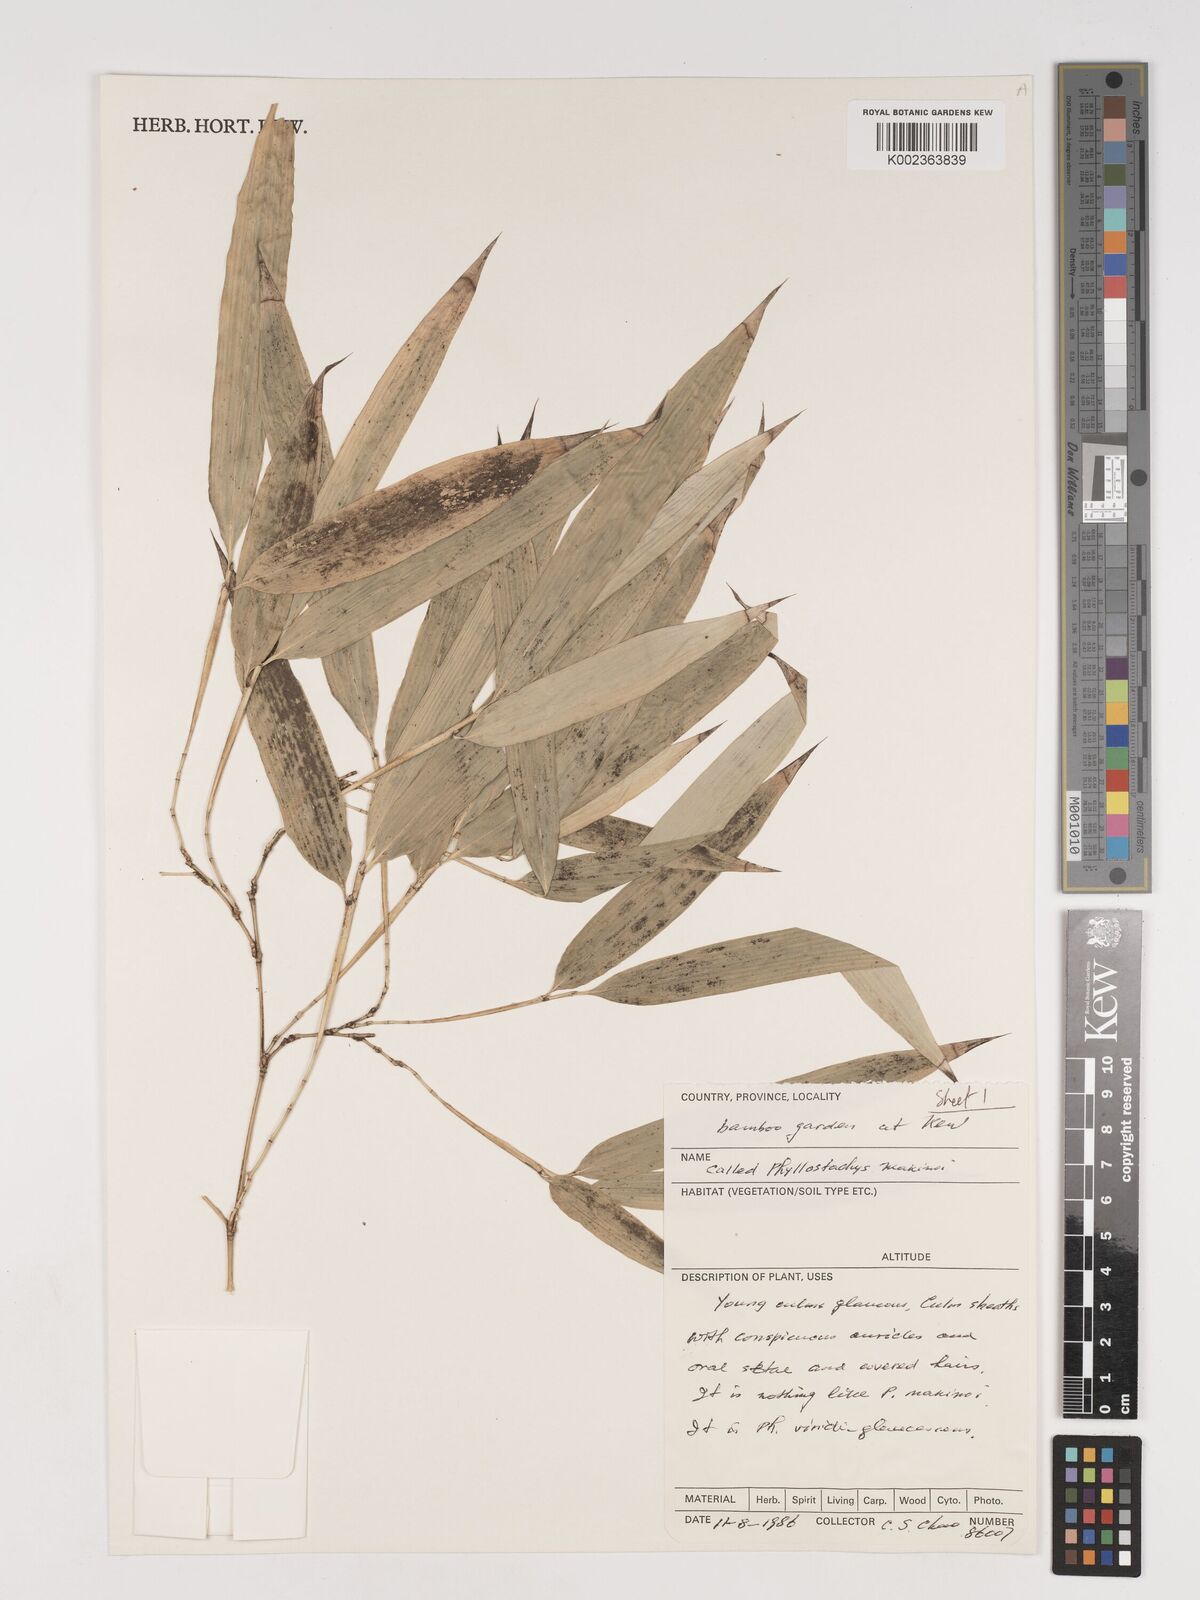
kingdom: Plantae
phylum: Tracheophyta
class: Liliopsida
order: Poales
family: Poaceae
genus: Phyllostachys
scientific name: Phyllostachys dulcis
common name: Sweetshoot bamboo
